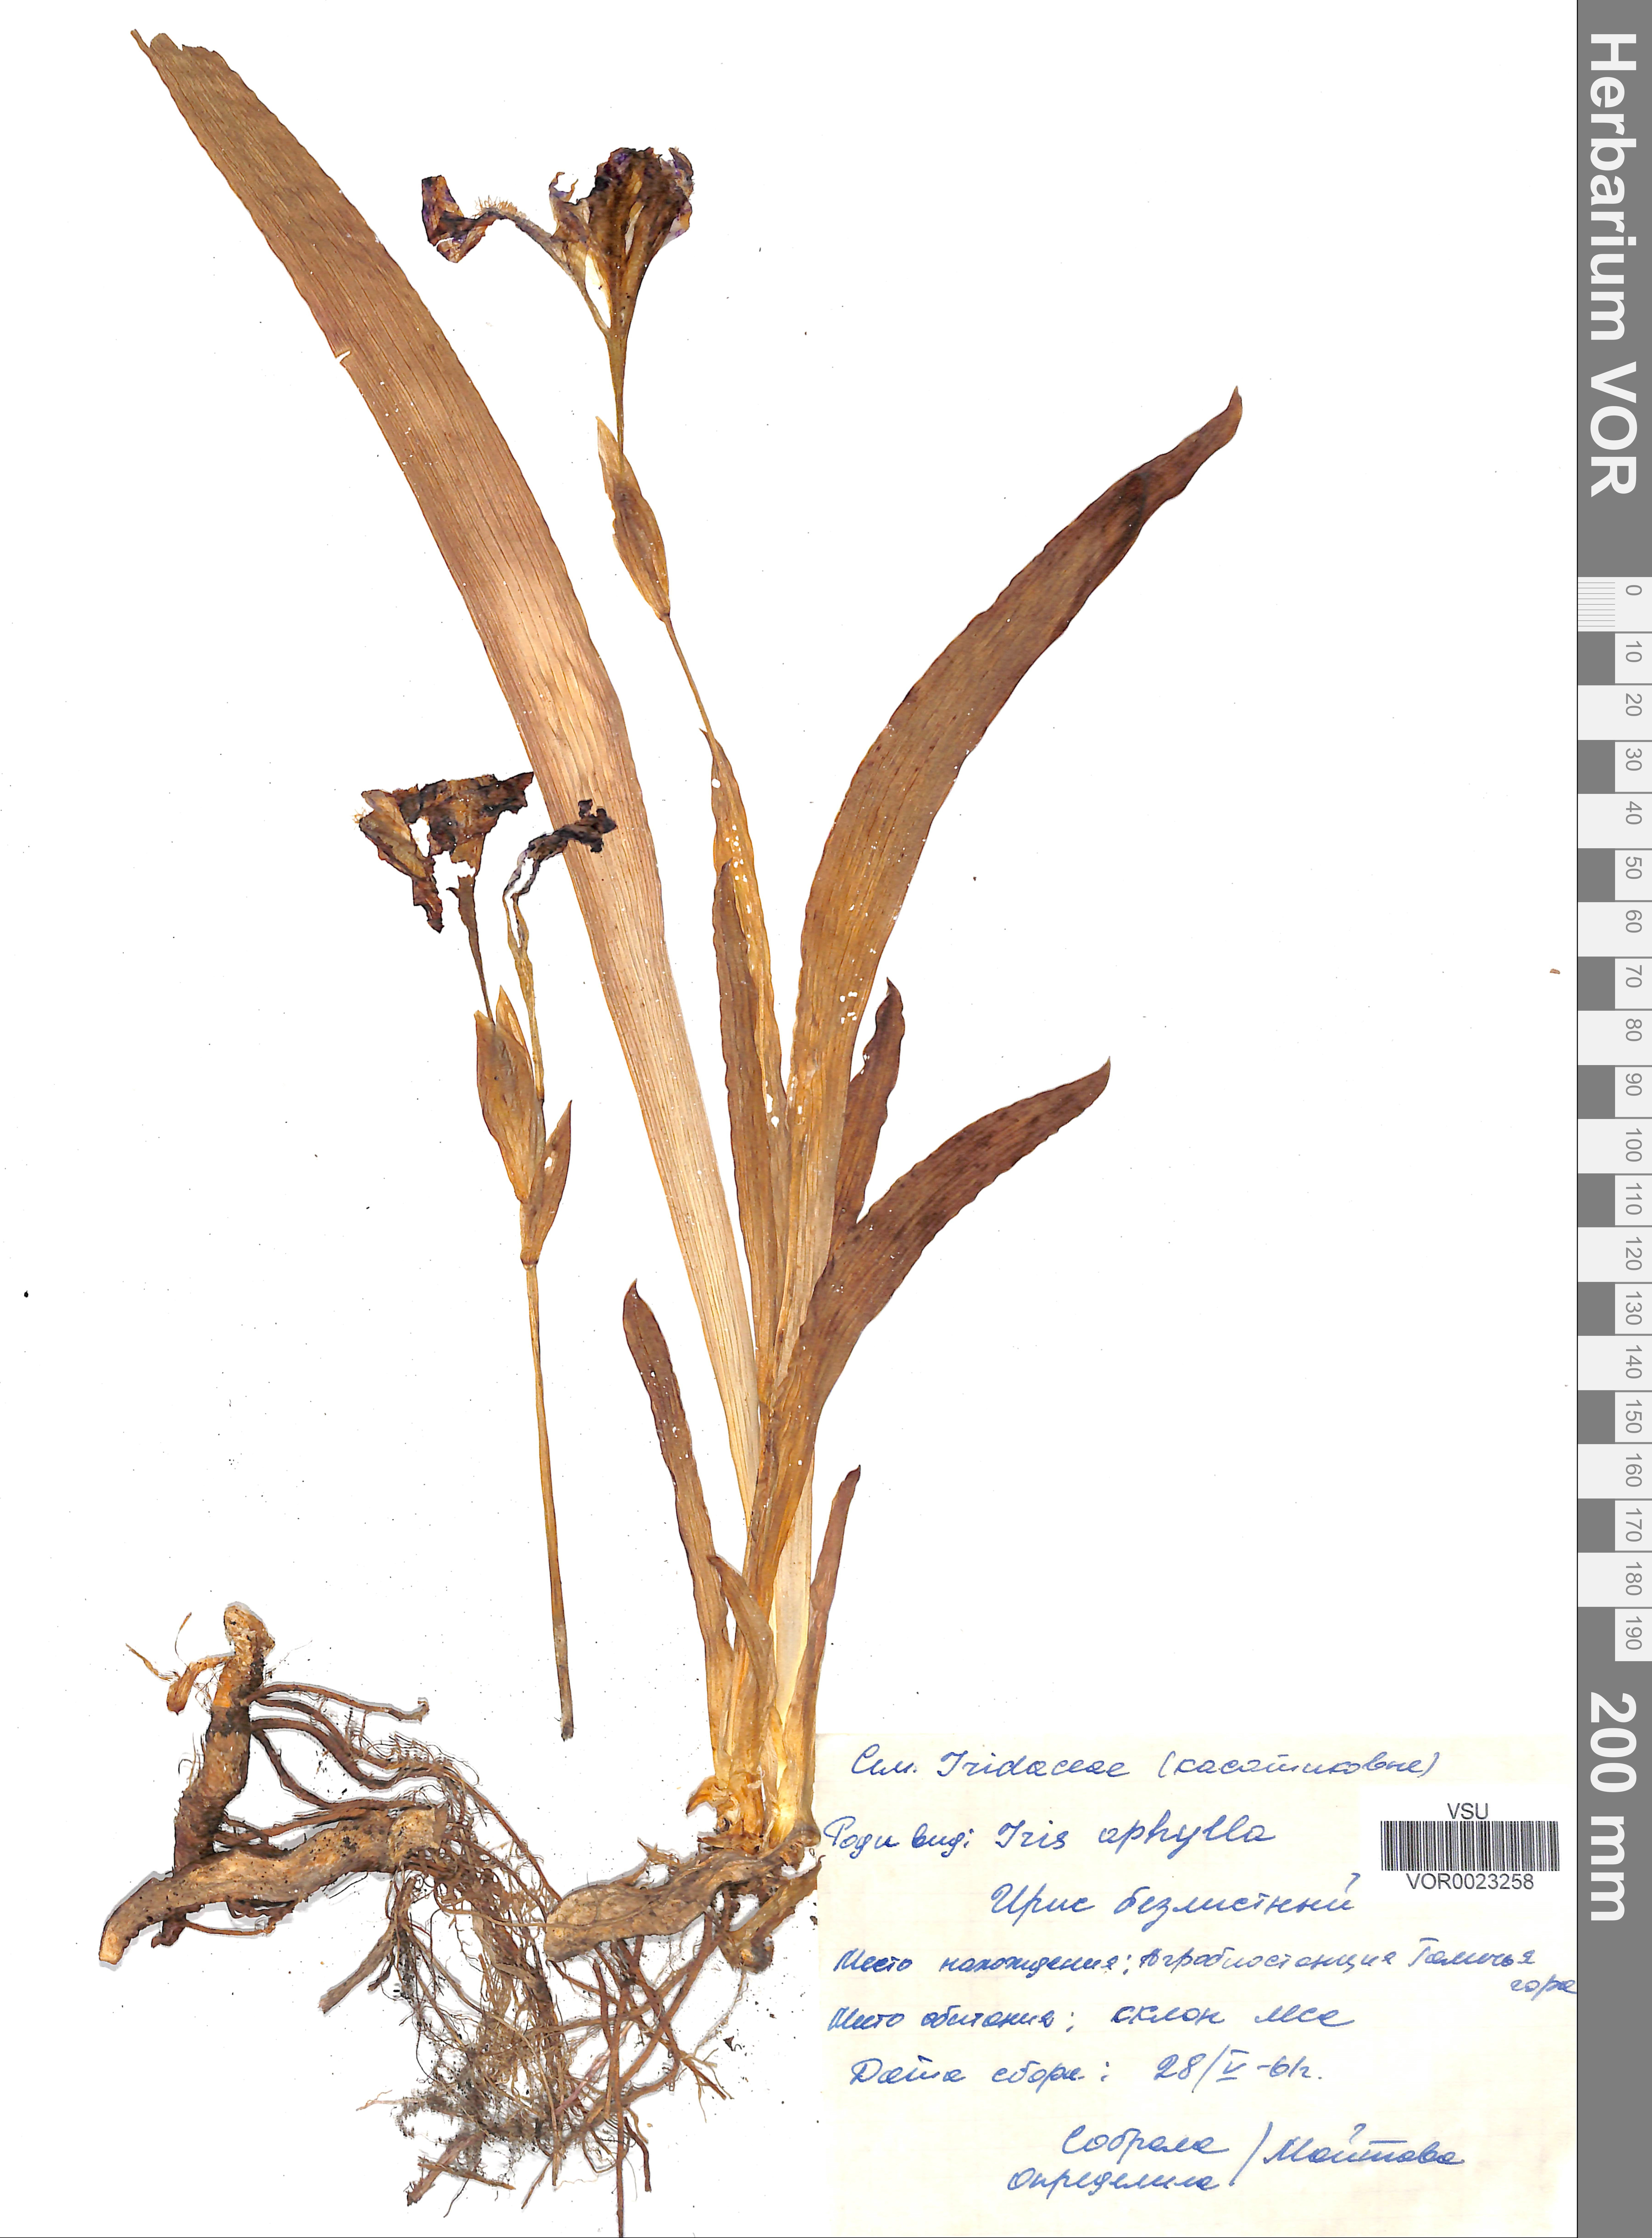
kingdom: Plantae
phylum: Tracheophyta
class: Liliopsida
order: Asparagales
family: Iridaceae
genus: Iris
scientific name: Iris aphylla
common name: Stool iris
